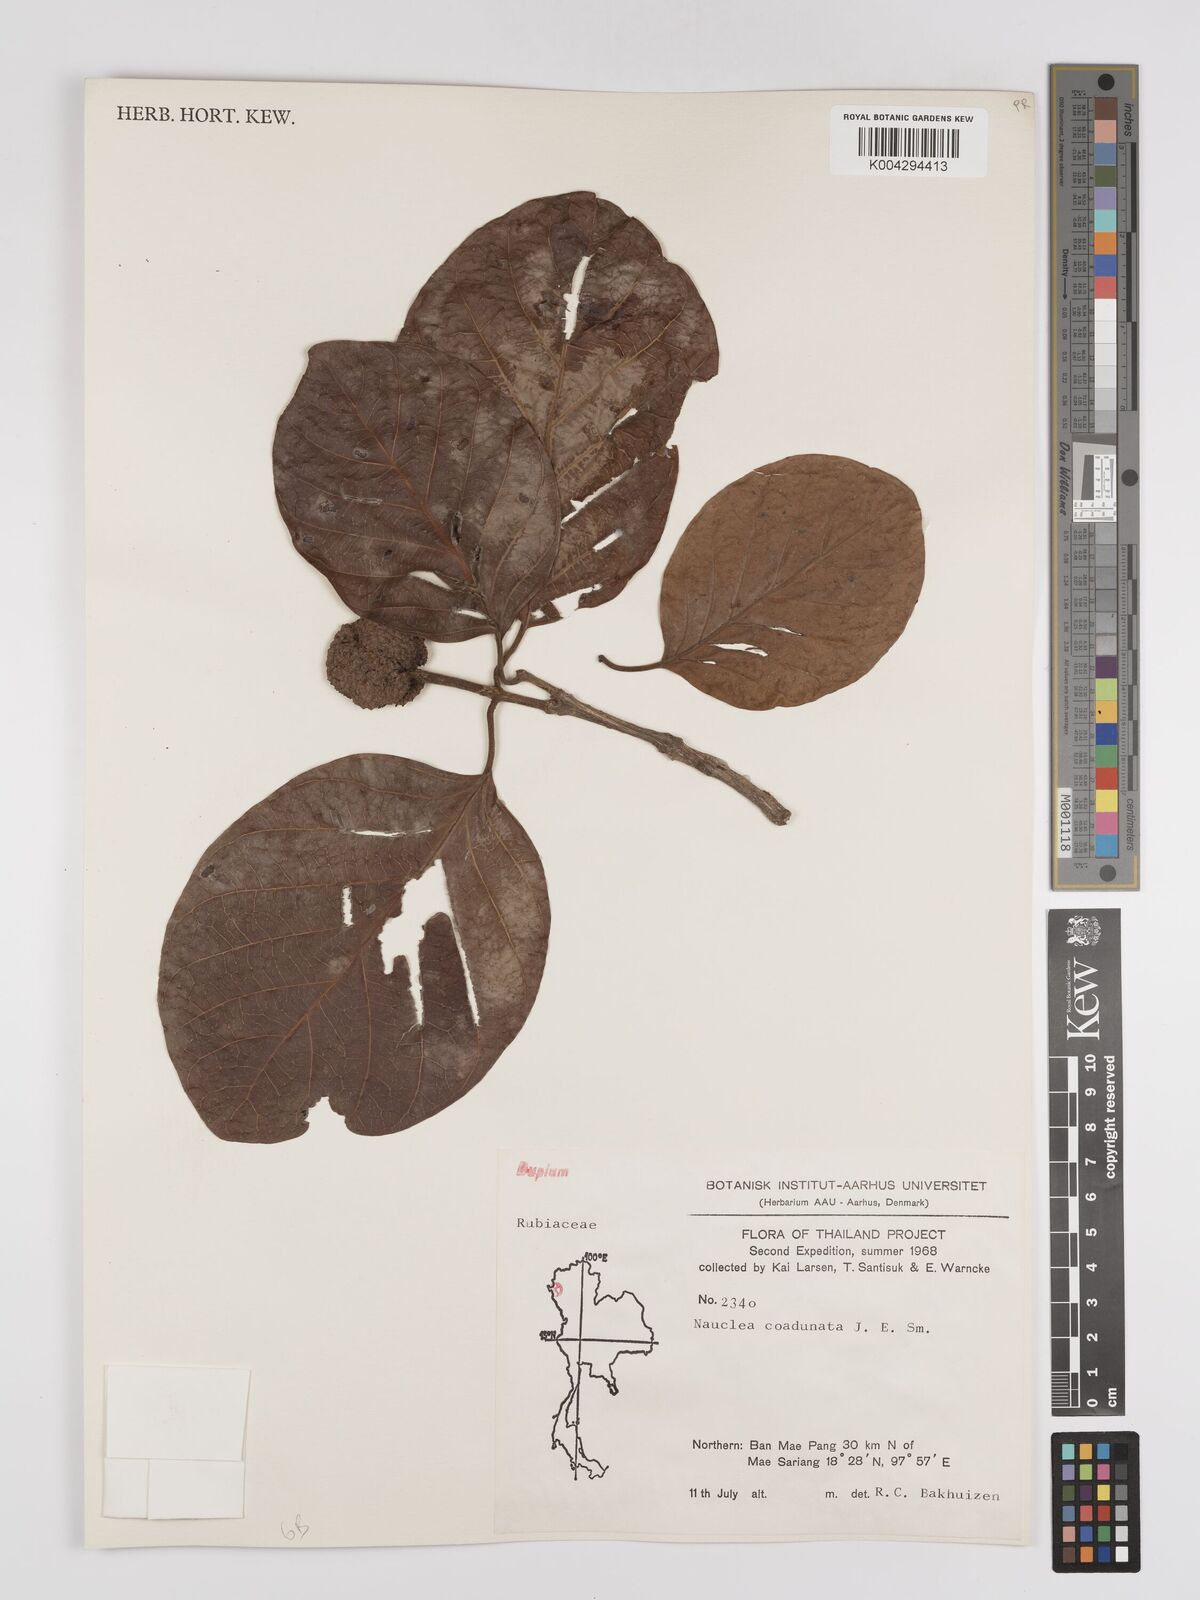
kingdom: Plantae
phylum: Tracheophyta
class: Magnoliopsida
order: Gentianales
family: Rubiaceae
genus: Nauclea
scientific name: Nauclea orientalis
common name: Leichhardt-pine
